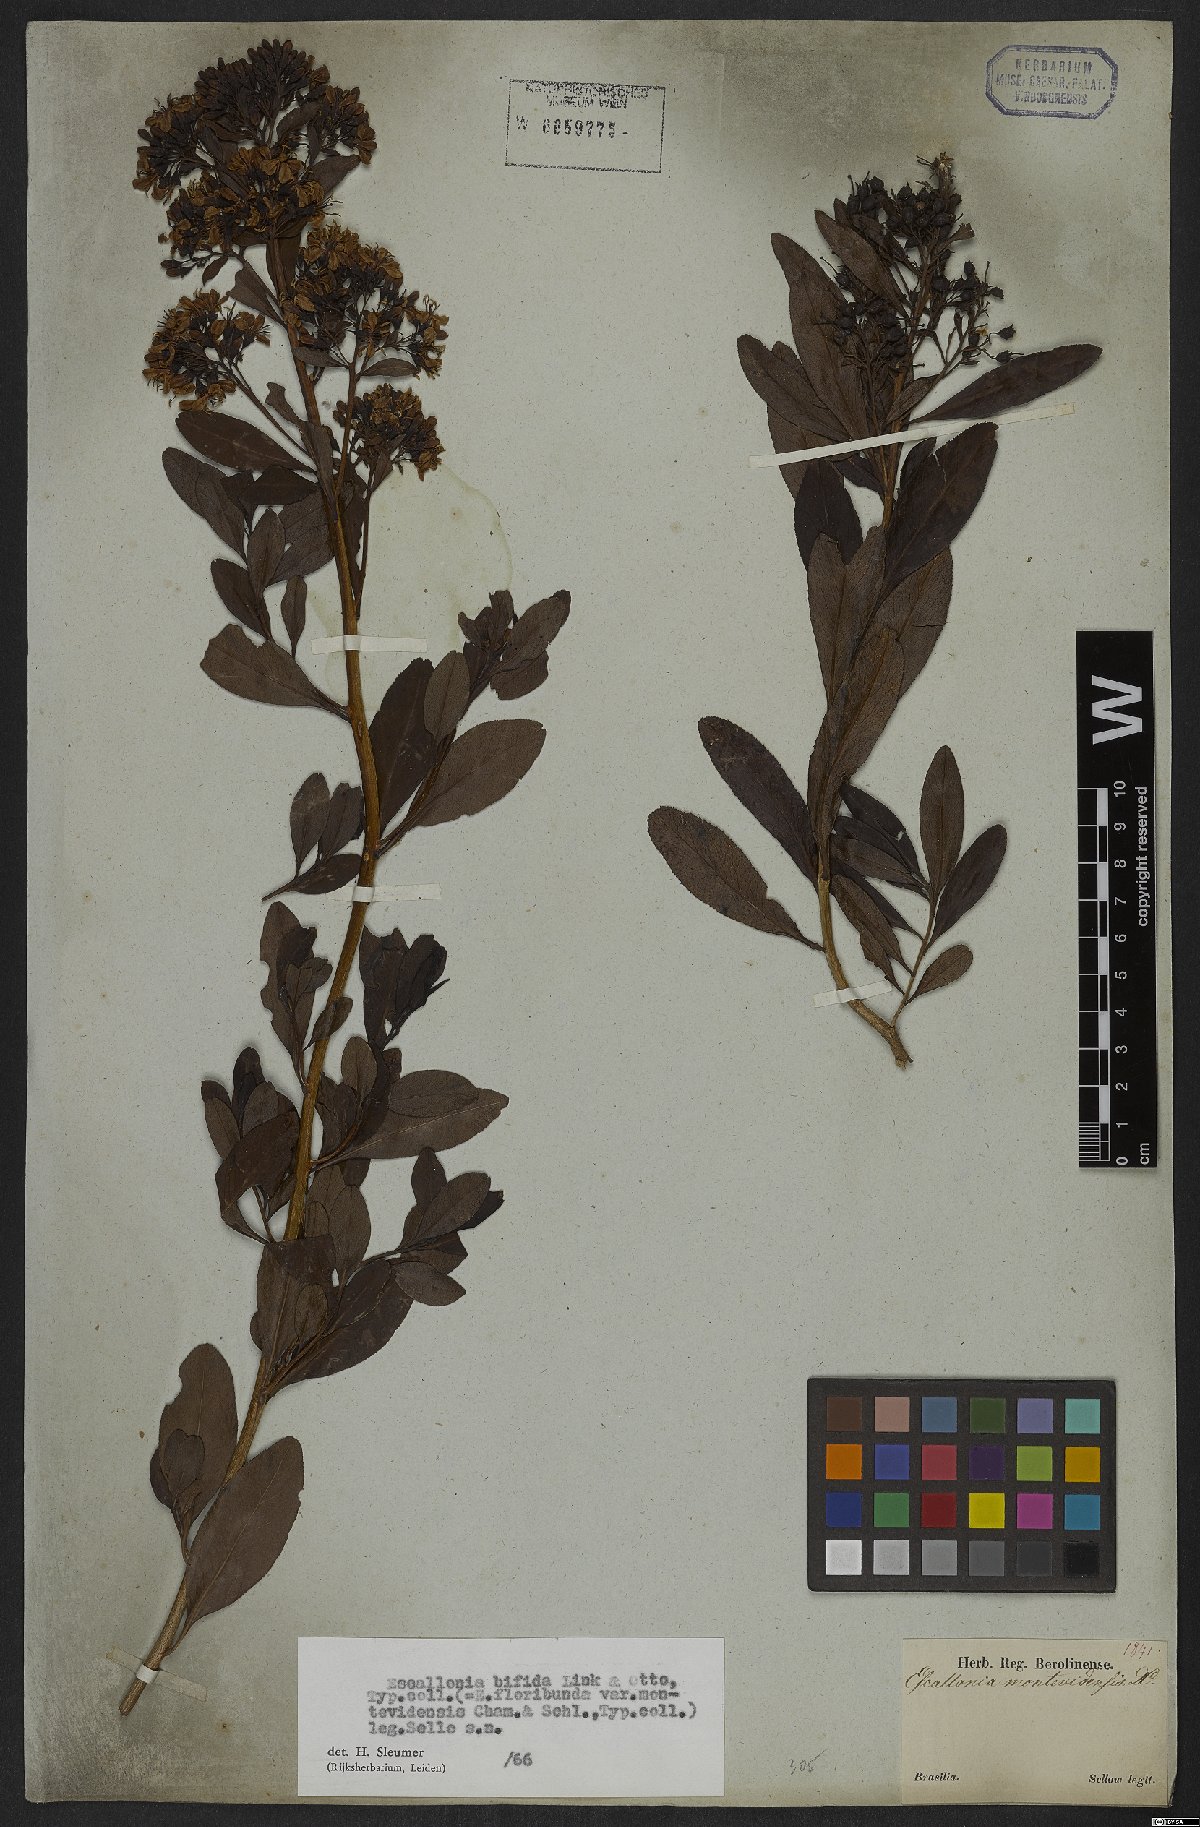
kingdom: Plantae
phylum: Tracheophyta
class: Magnoliopsida
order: Escalloniales
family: Escalloniaceae
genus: Escallonia
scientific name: Escallonia bifida
